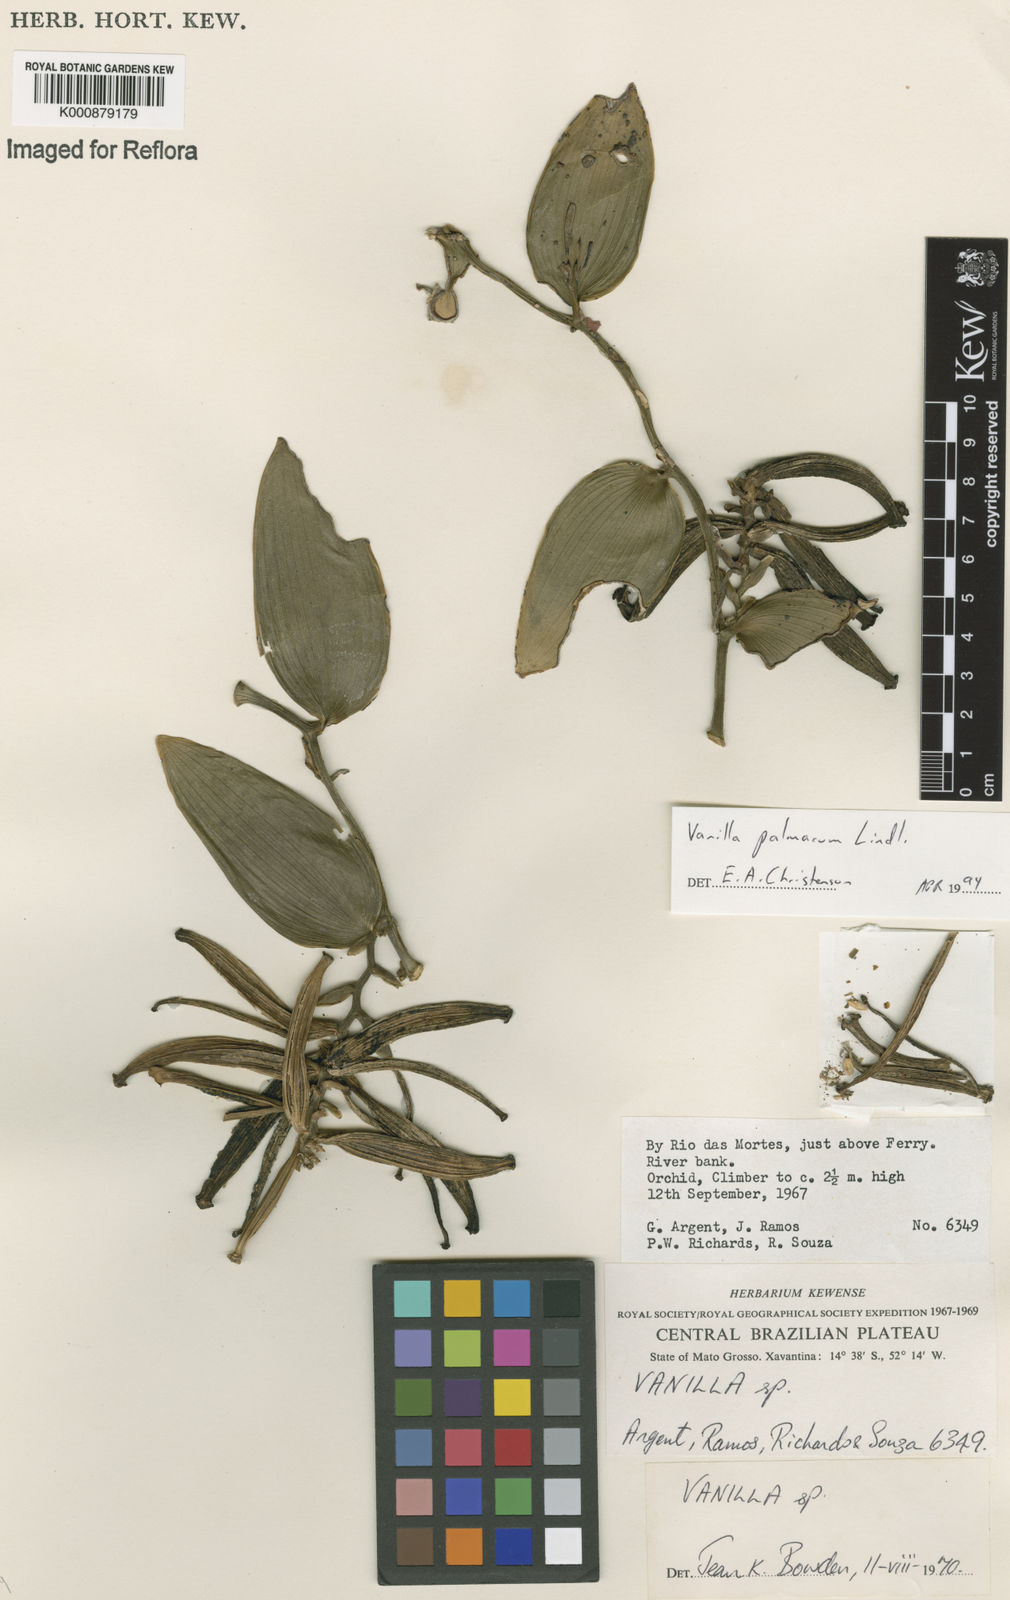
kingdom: Plantae
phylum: Tracheophyta
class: Liliopsida
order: Asparagales
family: Orchidaceae
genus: Vanilla
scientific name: Vanilla palmarum
